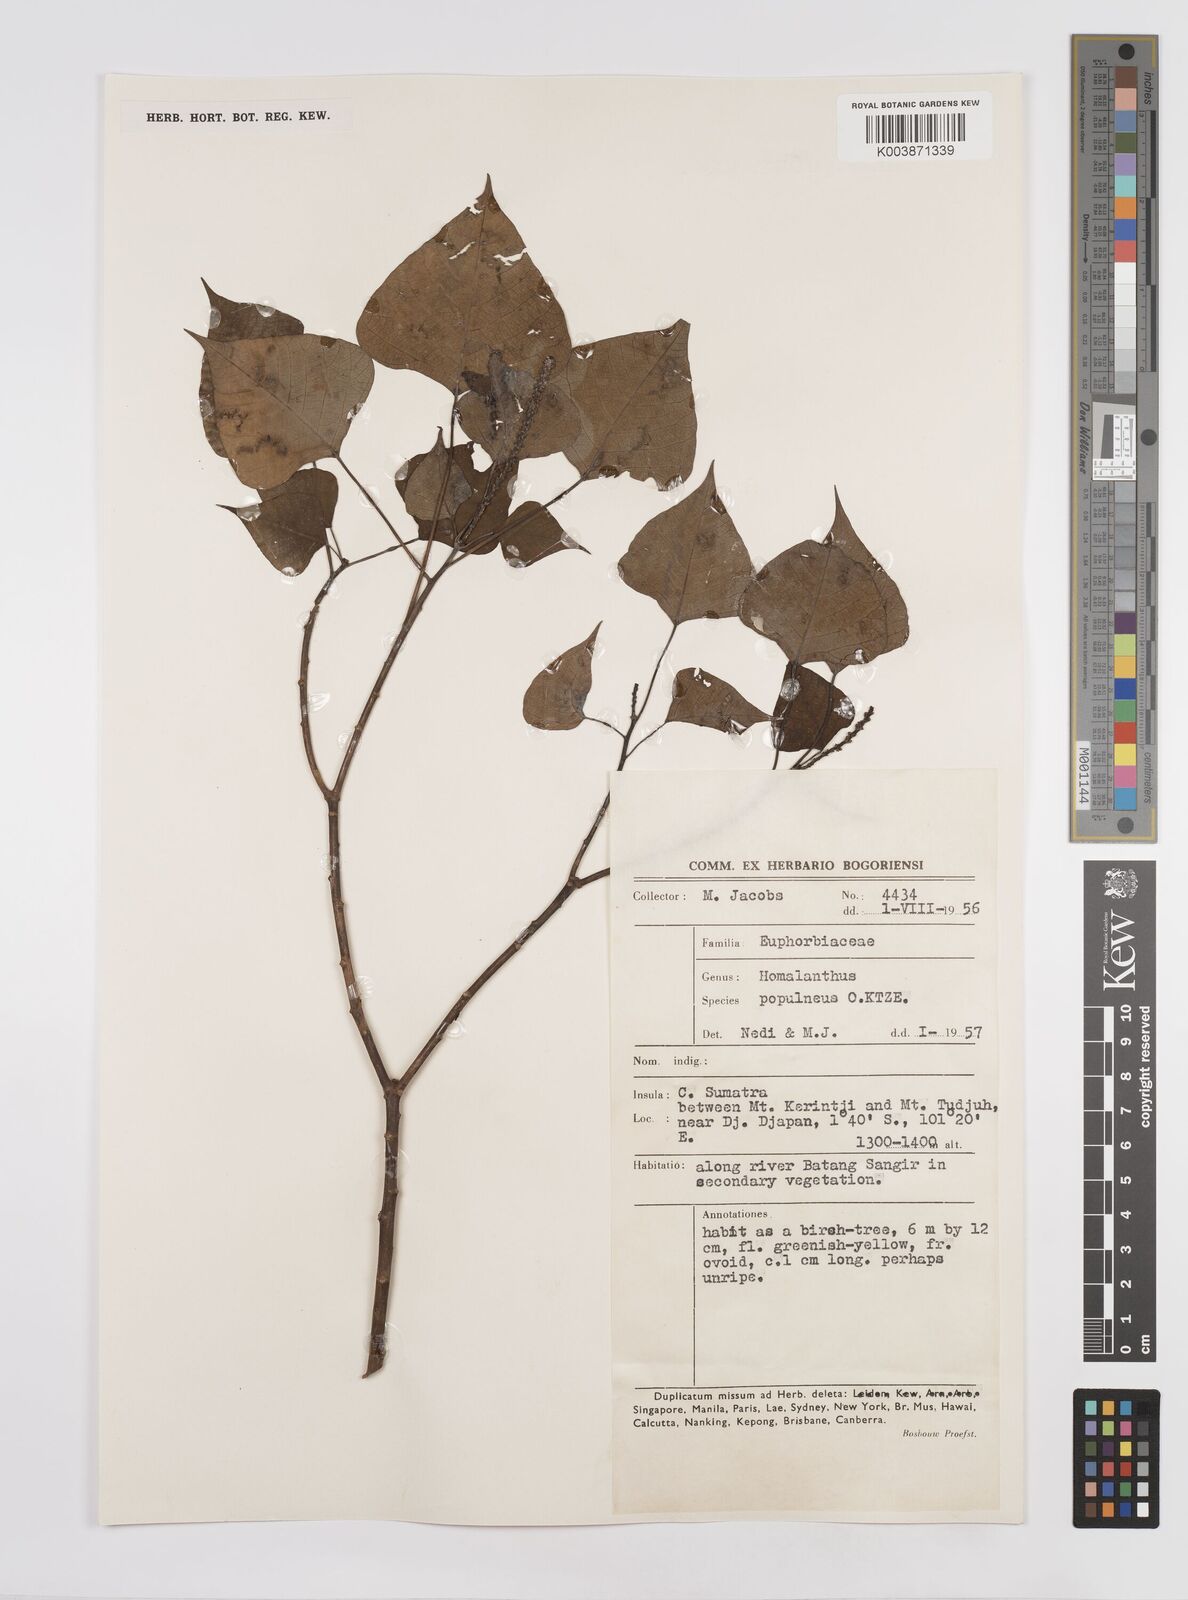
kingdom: Plantae
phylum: Tracheophyta
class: Magnoliopsida
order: Malpighiales
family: Euphorbiaceae
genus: Homalanthus
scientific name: Homalanthus populneus
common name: Spurge
